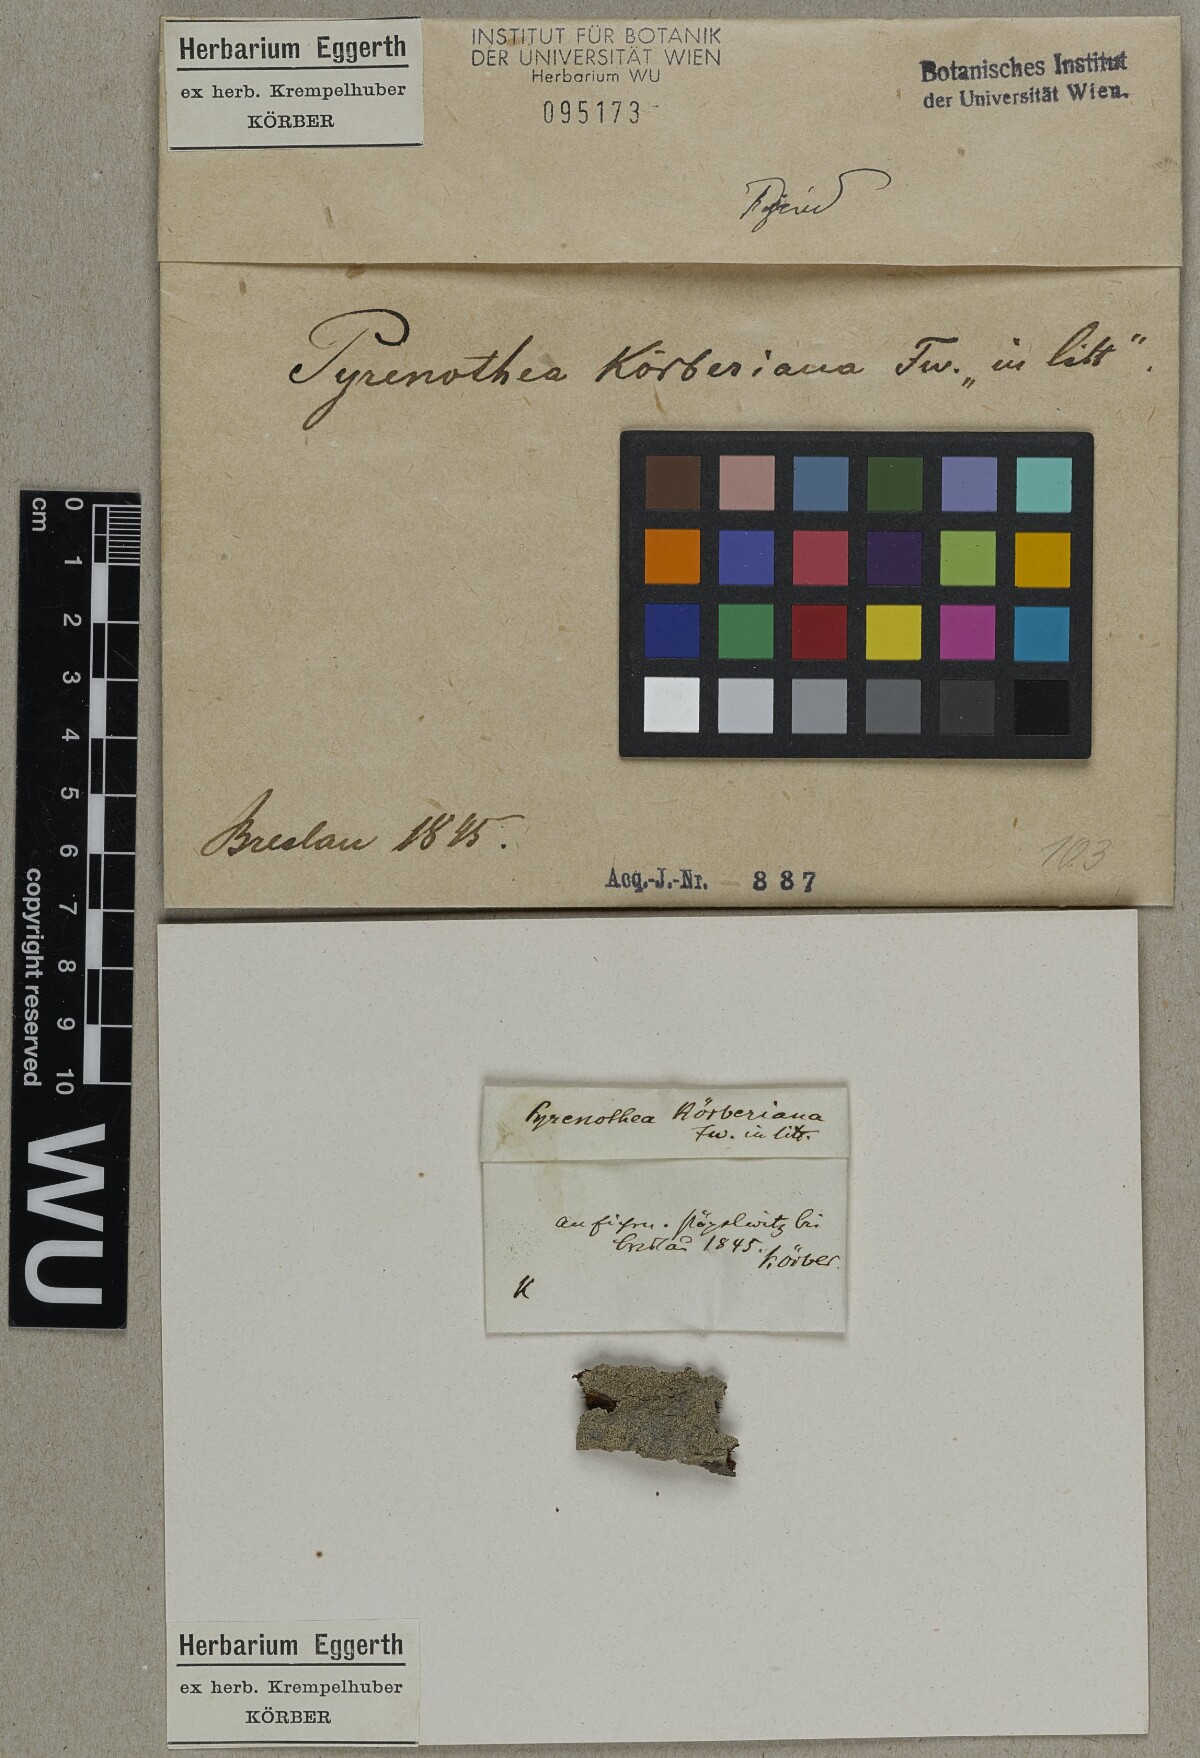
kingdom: Fungi
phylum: Ascomycota
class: Arthoniomycetes
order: Arthoniales
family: Roccellaceae
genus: Pyrenotea
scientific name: Pyrenotea
